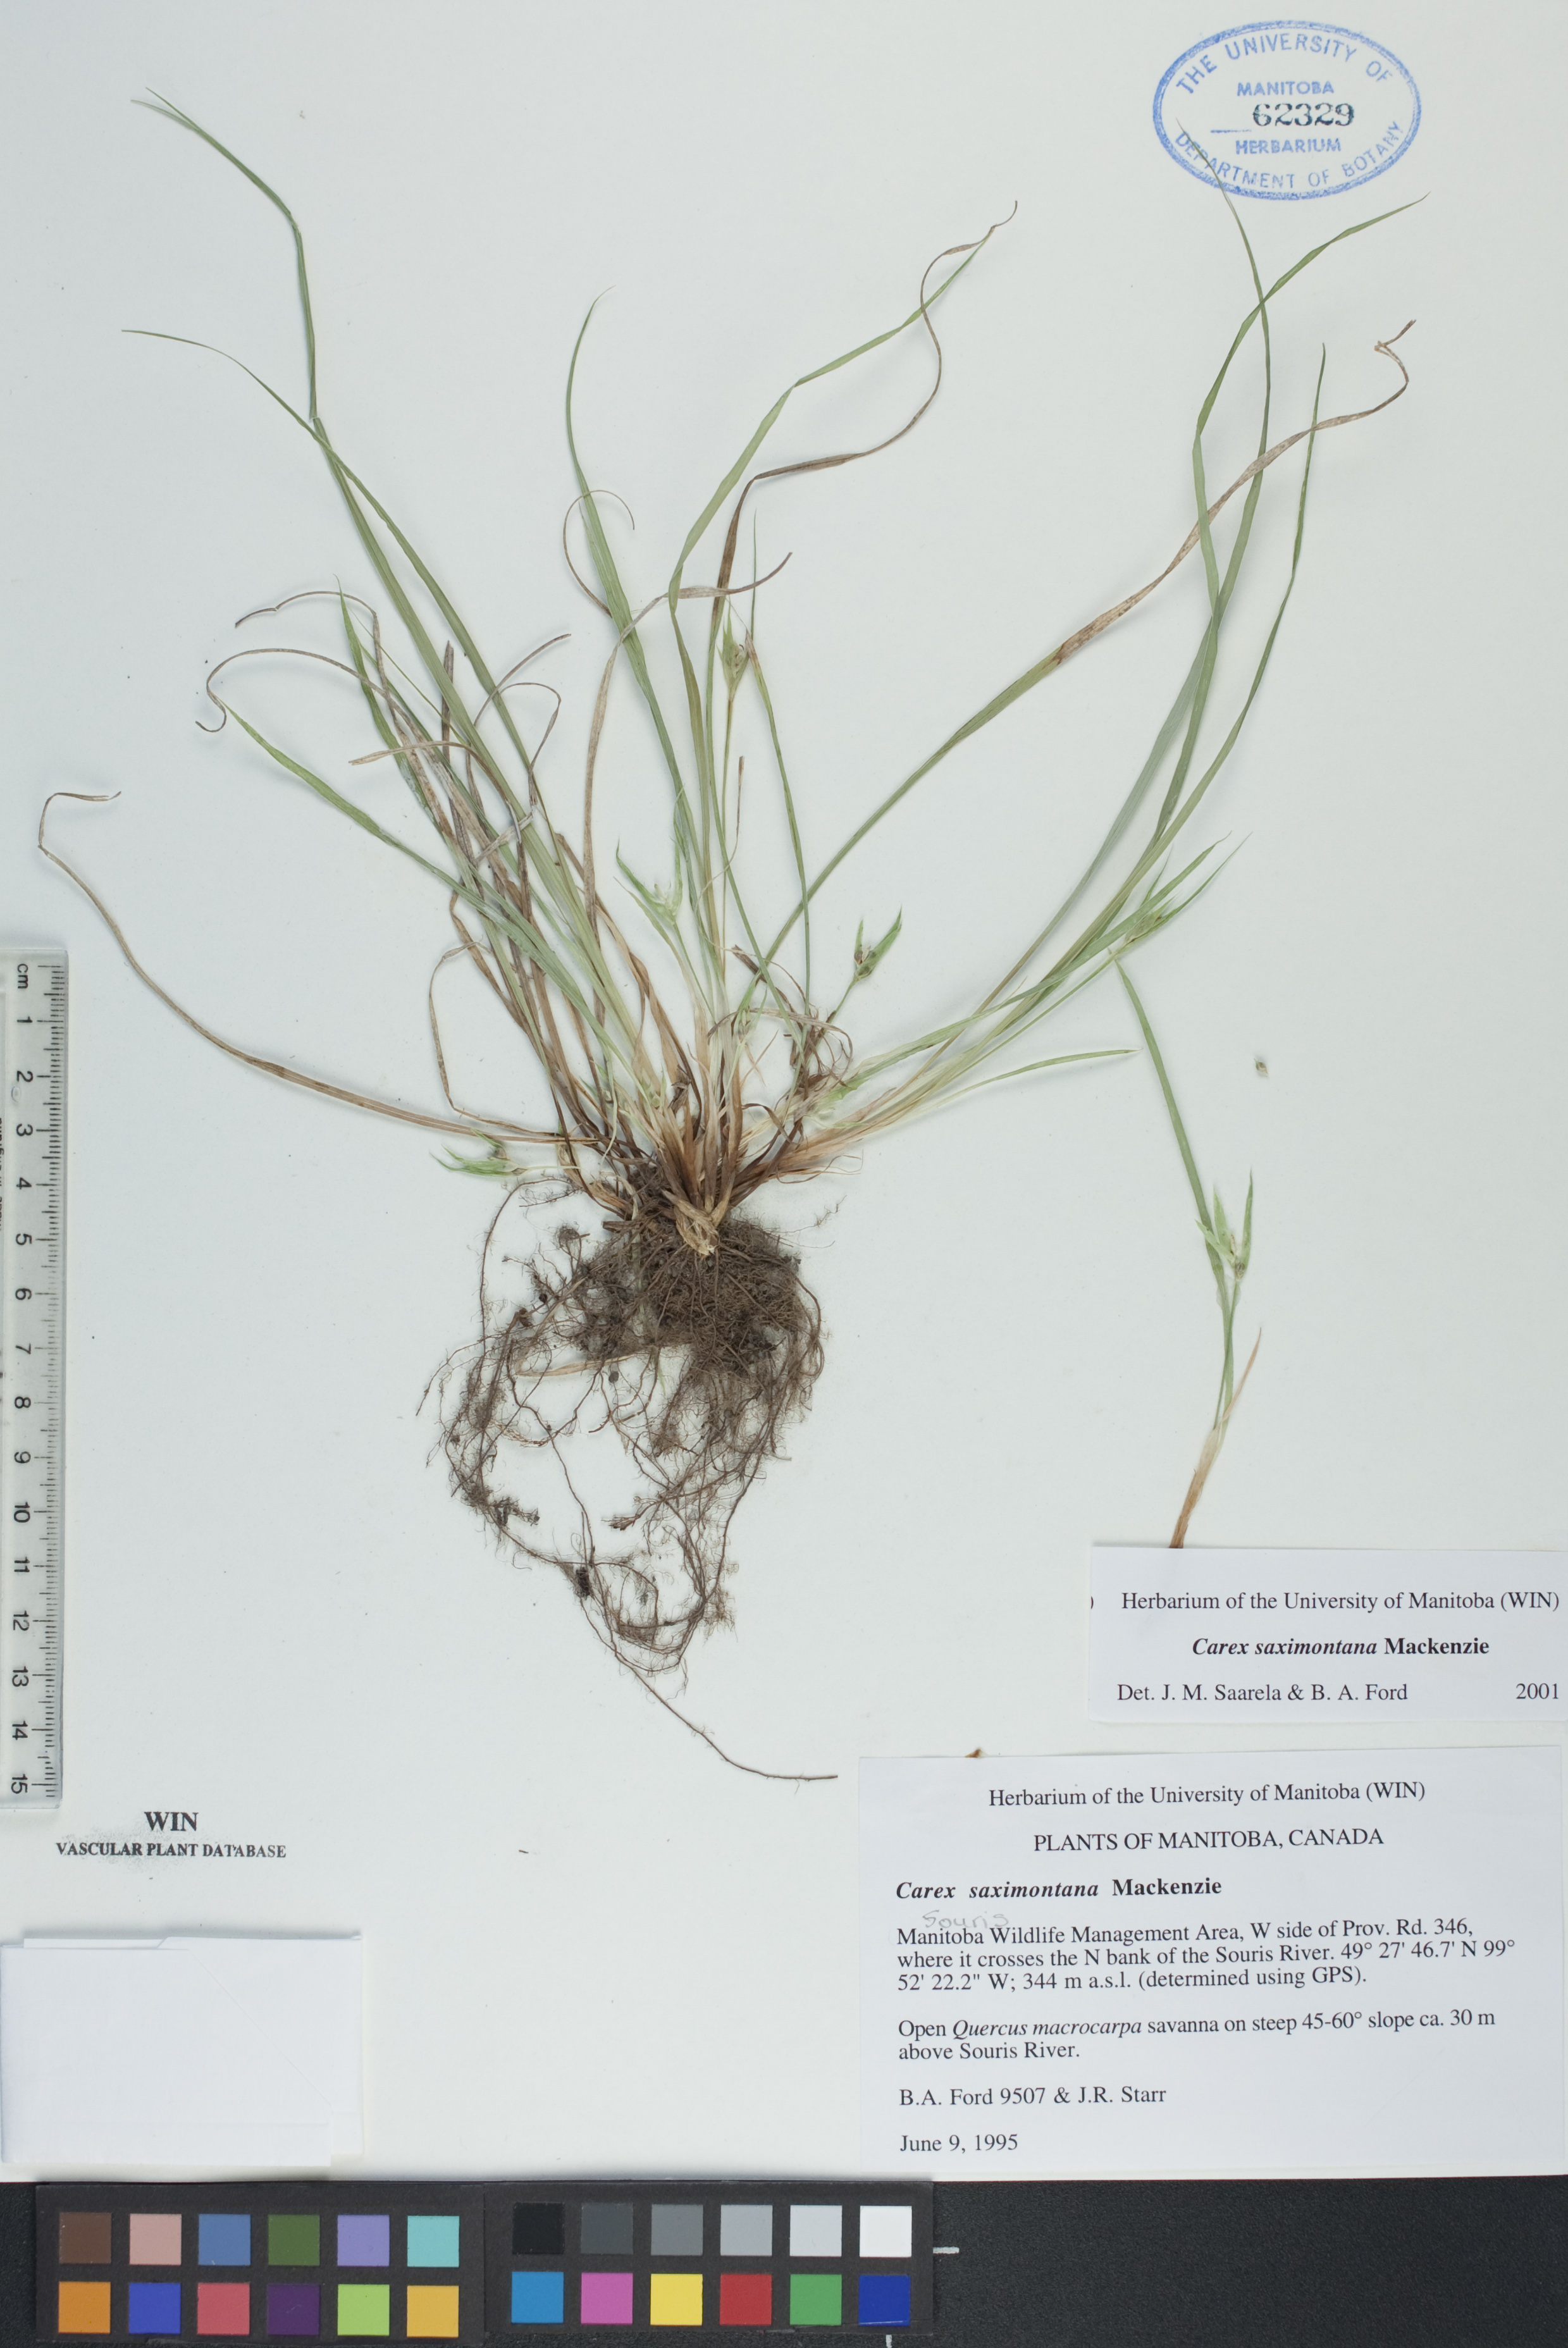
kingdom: Plantae
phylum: Tracheophyta
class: Liliopsida
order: Poales
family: Cyperaceae
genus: Carex
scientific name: Carex saximontana
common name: Rocky mountain sedge
